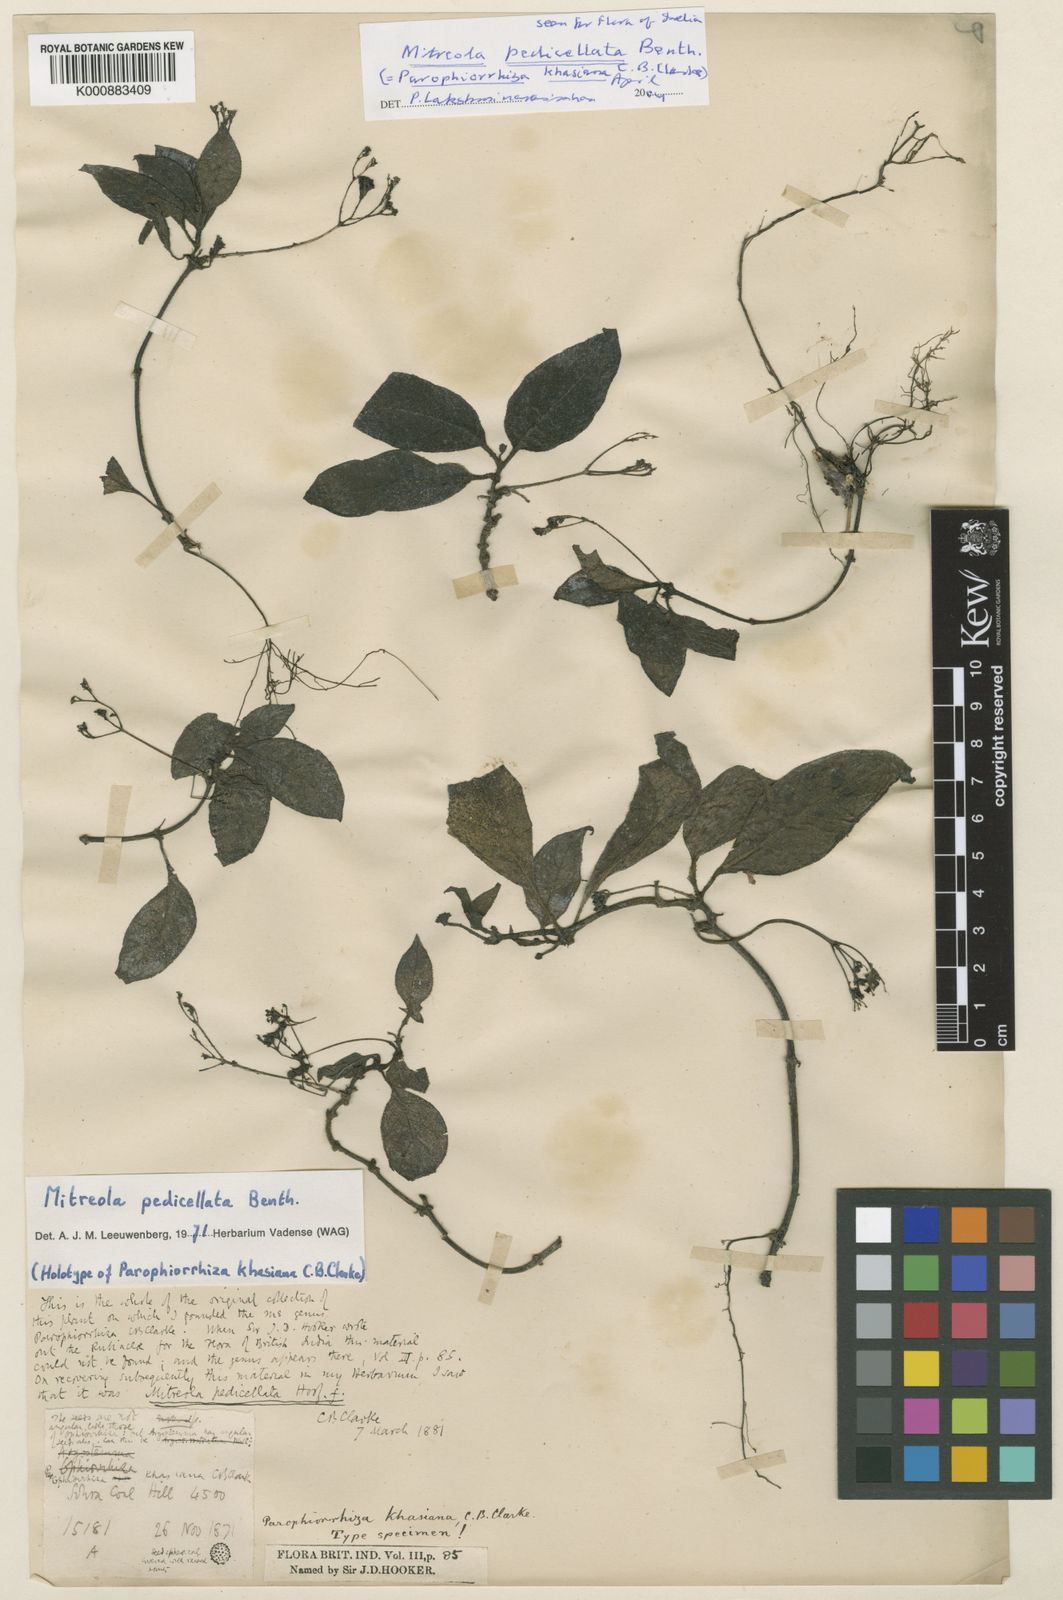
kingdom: Plantae
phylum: Tracheophyta
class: Magnoliopsida
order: Gentianales
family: Loganiaceae
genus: Mitreola
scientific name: Mitreola pedicellata
